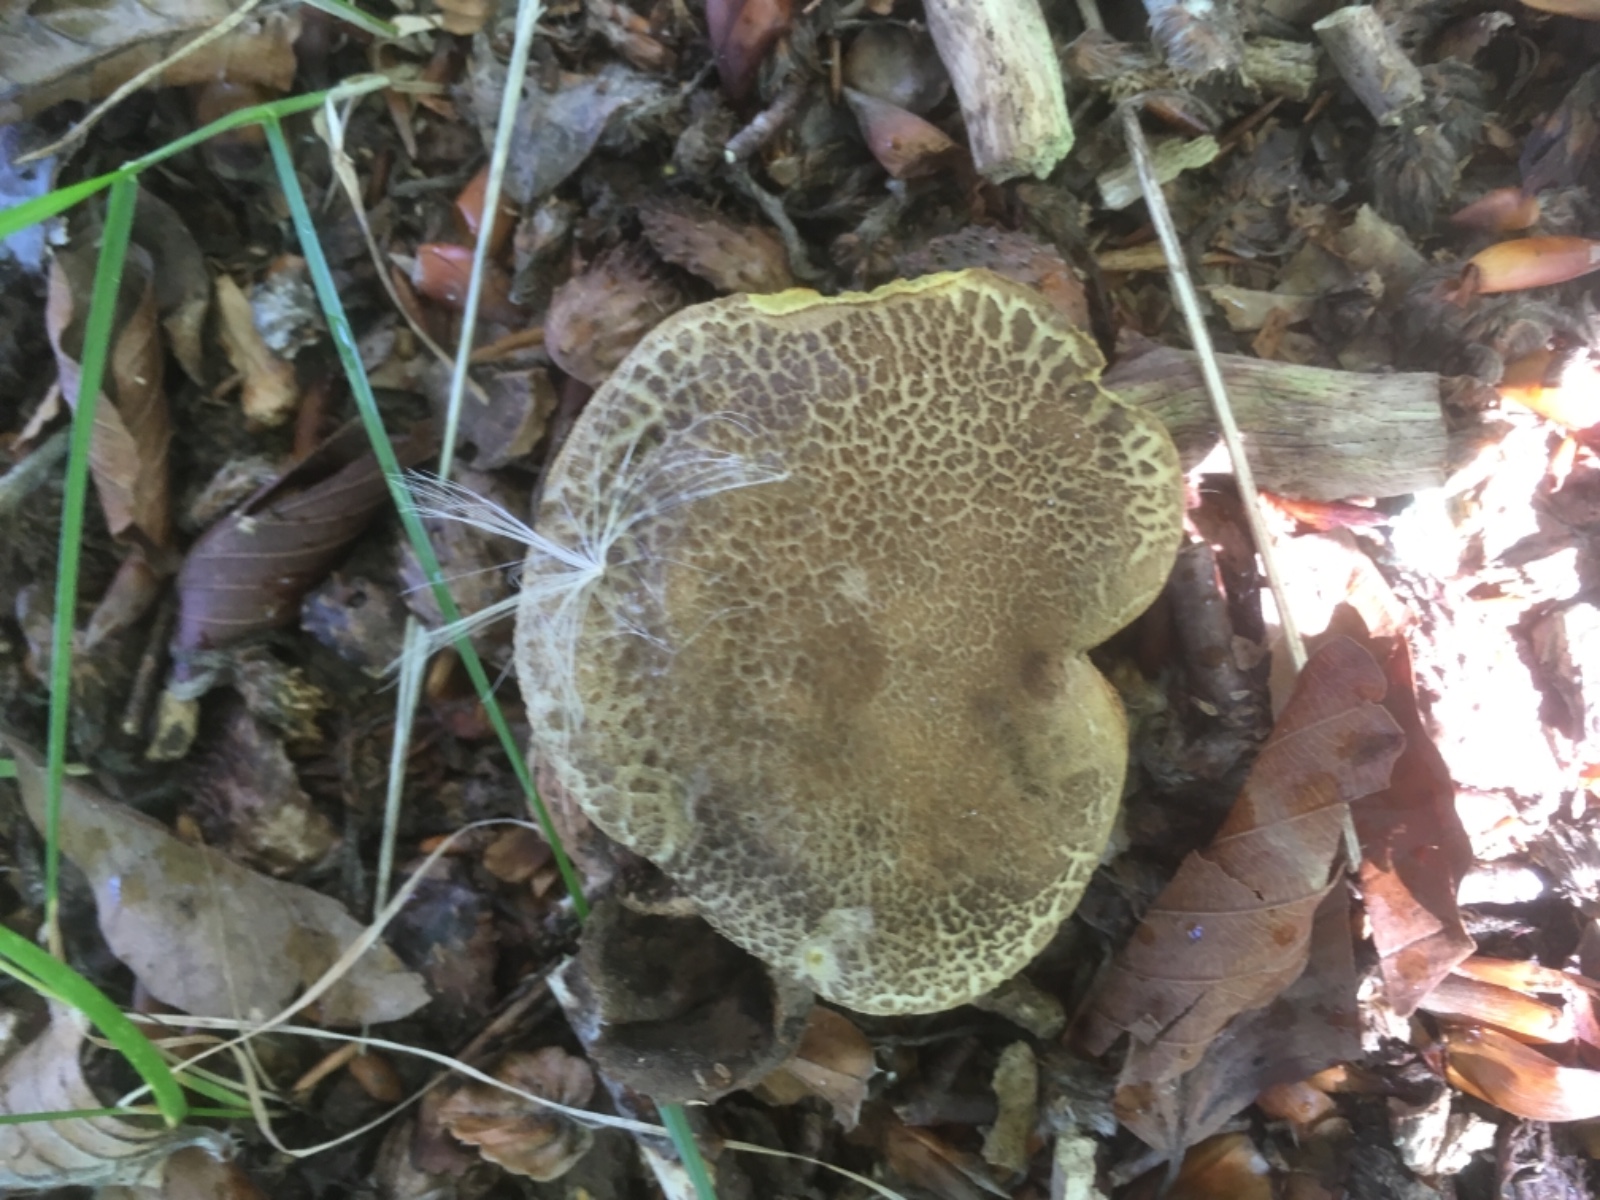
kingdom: Fungi
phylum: Basidiomycota
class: Agaricomycetes
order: Boletales
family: Boletaceae
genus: Xerocomellus
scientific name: Xerocomellus porosporus
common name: hvidsprukken rørhat
